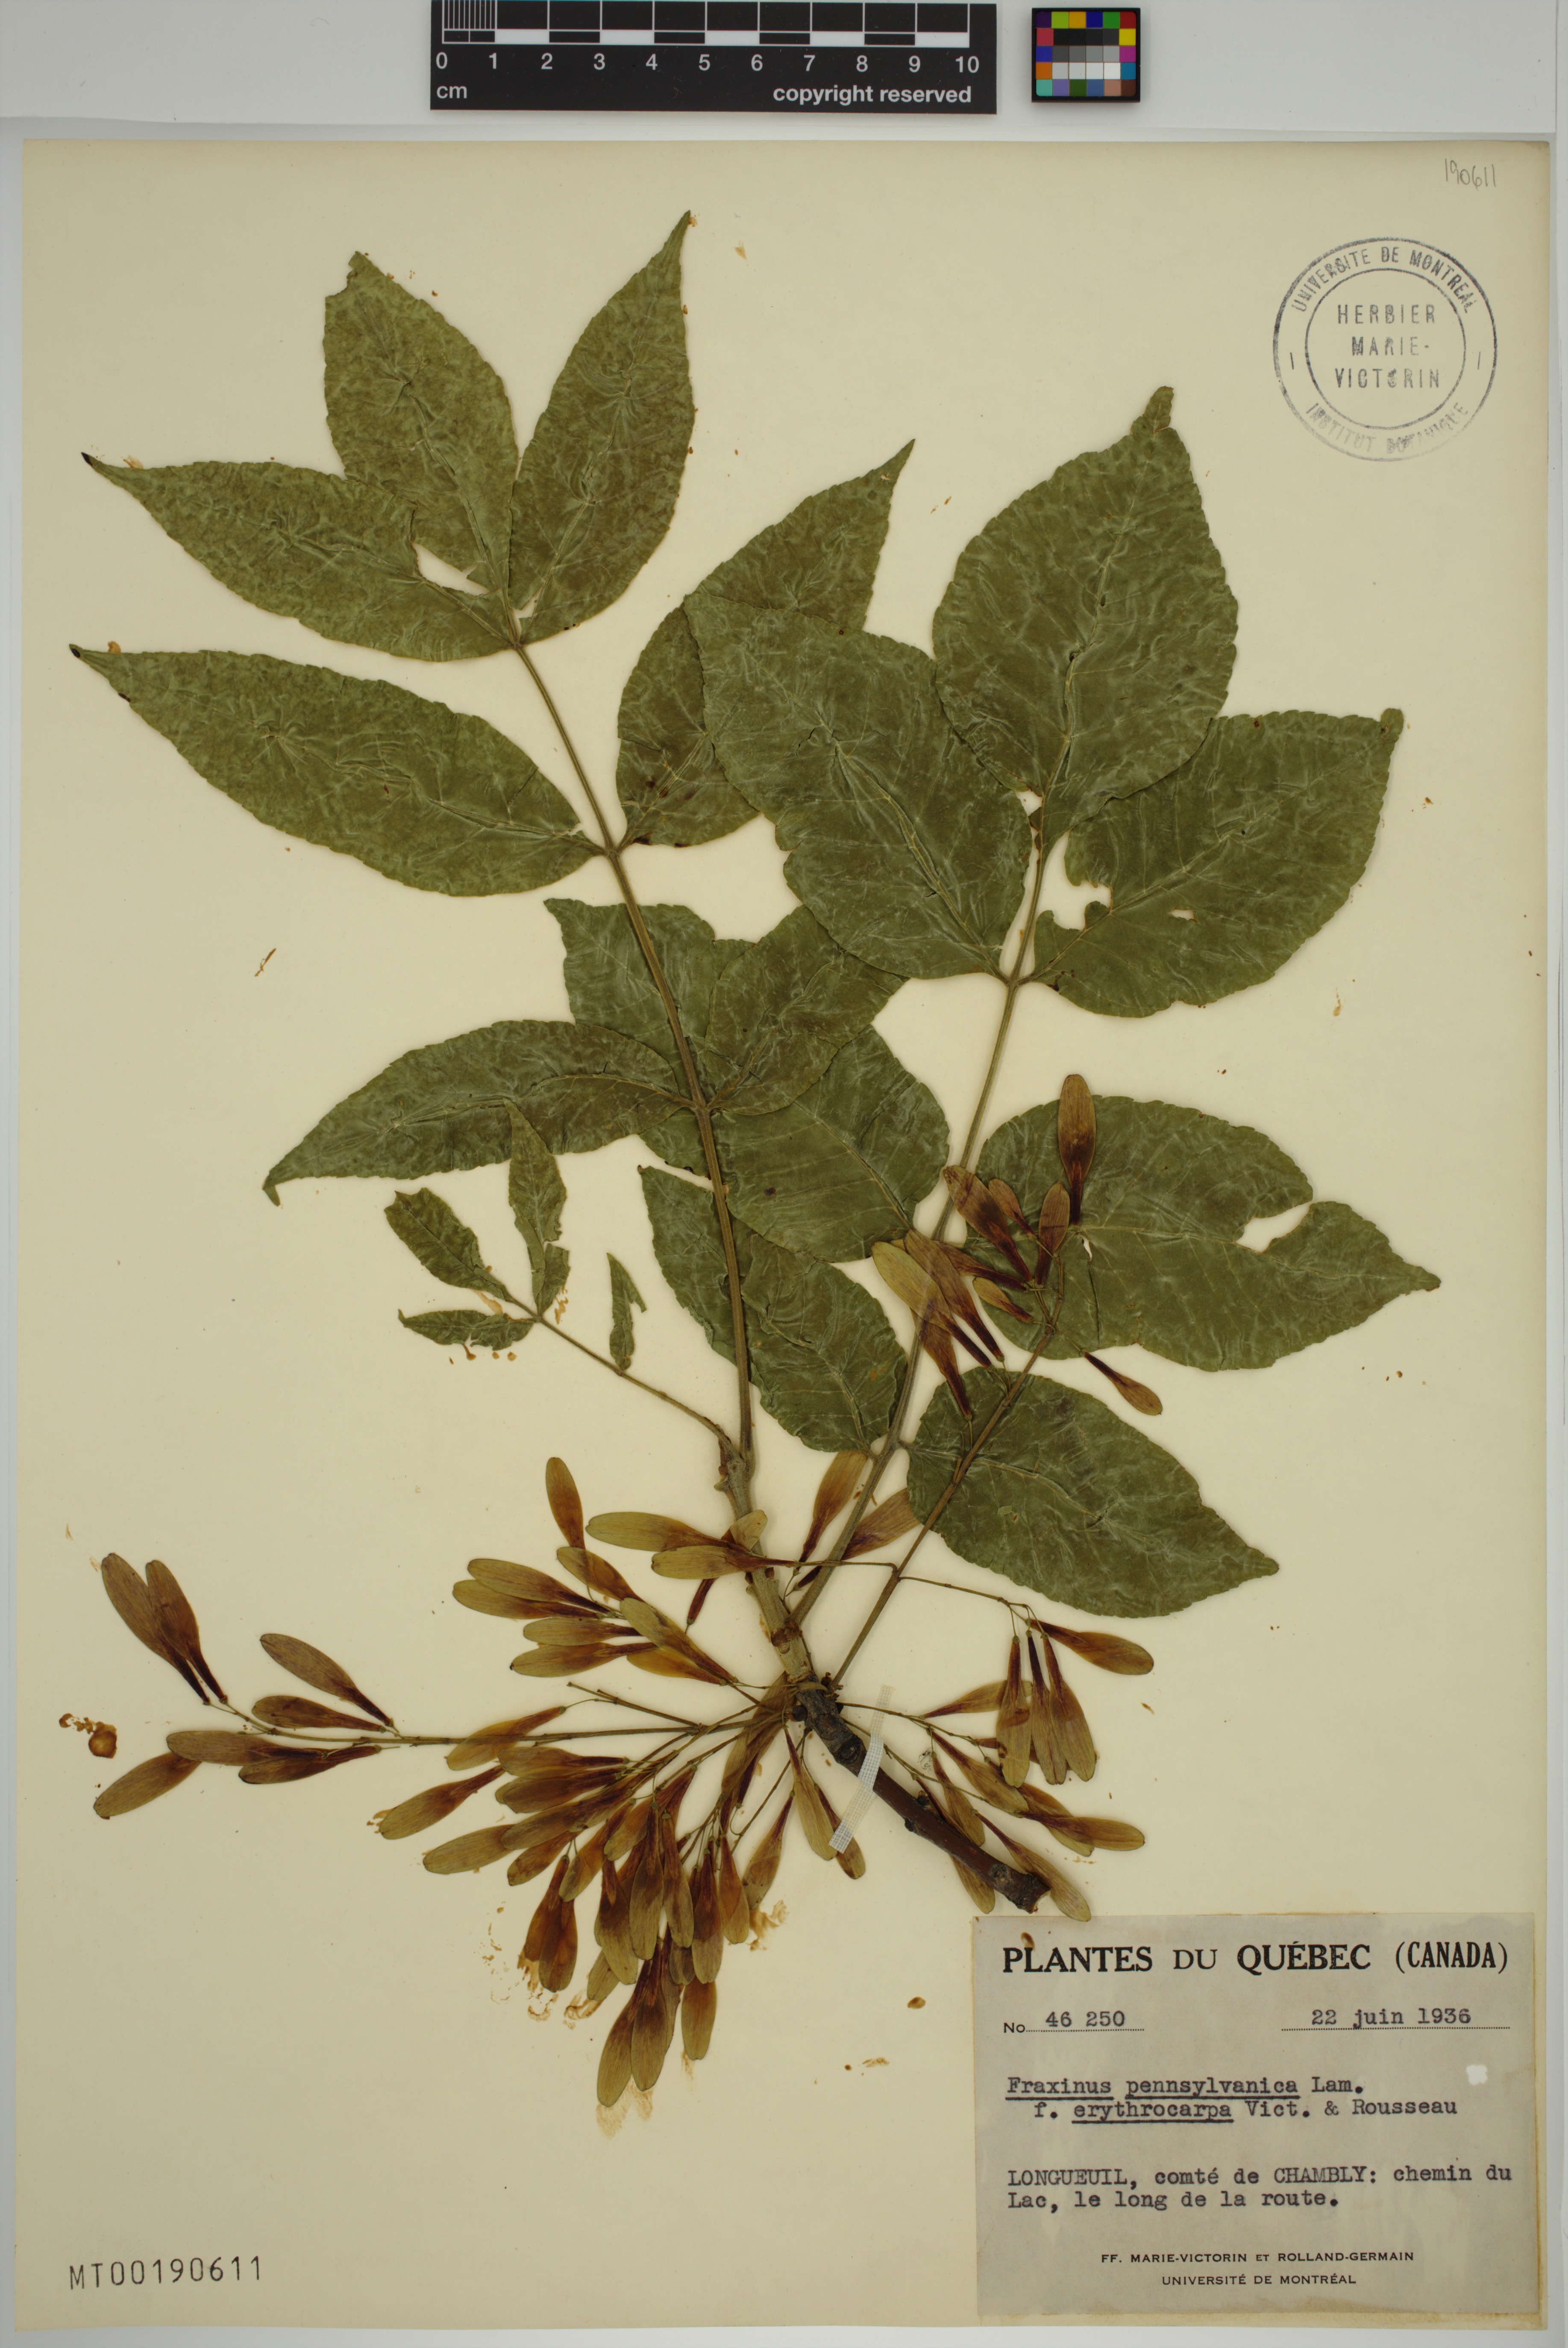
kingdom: Plantae
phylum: Tracheophyta
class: Magnoliopsida
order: Lamiales
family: Oleaceae
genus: Fraxinus
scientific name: Fraxinus pennsylvanica
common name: Green ash
